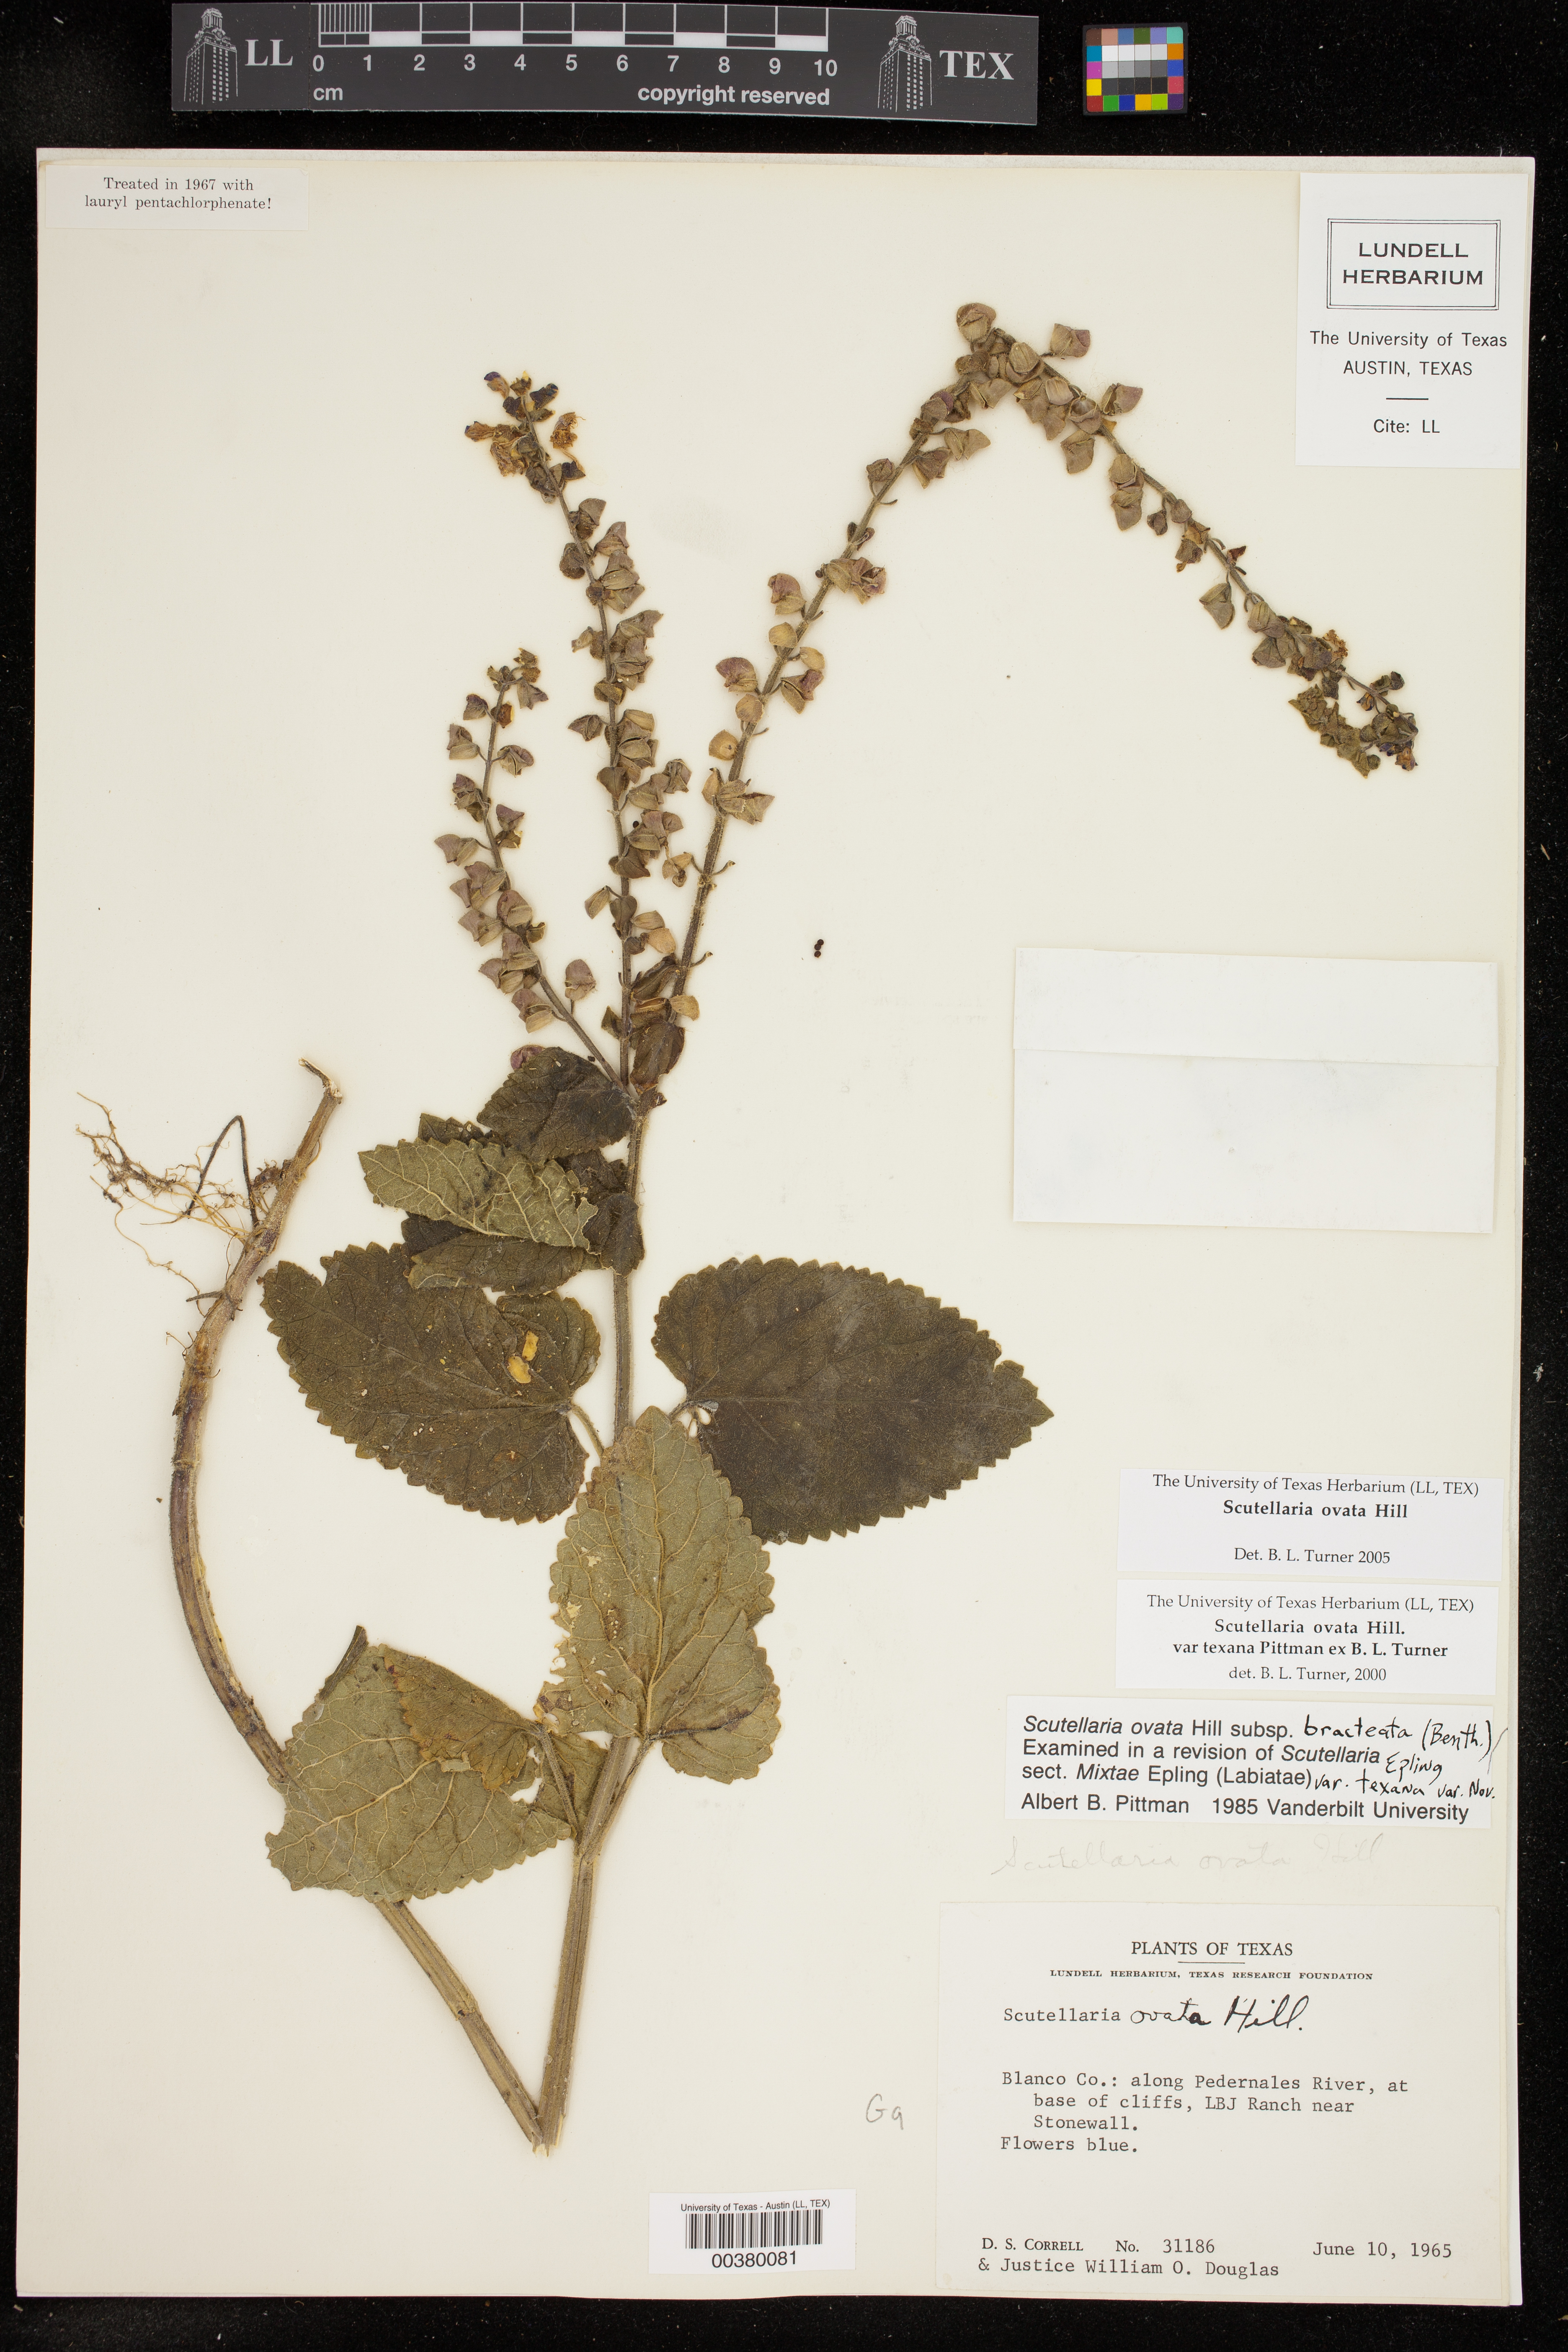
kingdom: Plantae
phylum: Tracheophyta
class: Magnoliopsida
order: Lamiales
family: Lamiaceae
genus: Scutellaria
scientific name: Scutellaria ovata
